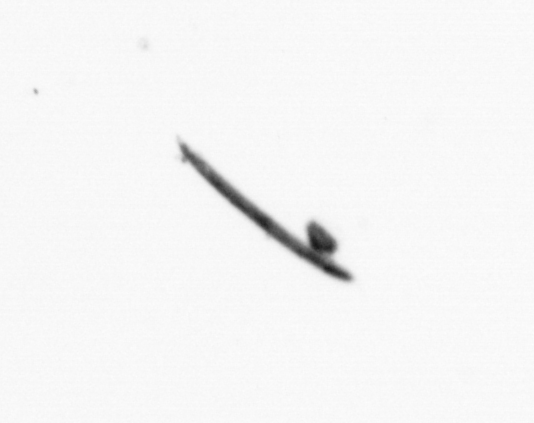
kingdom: Bacteria
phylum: Cyanobacteria
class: Cyanobacteriia
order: Cyanobacteriales
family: Microcoleaceae
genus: Trichodesmium
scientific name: Trichodesmium
